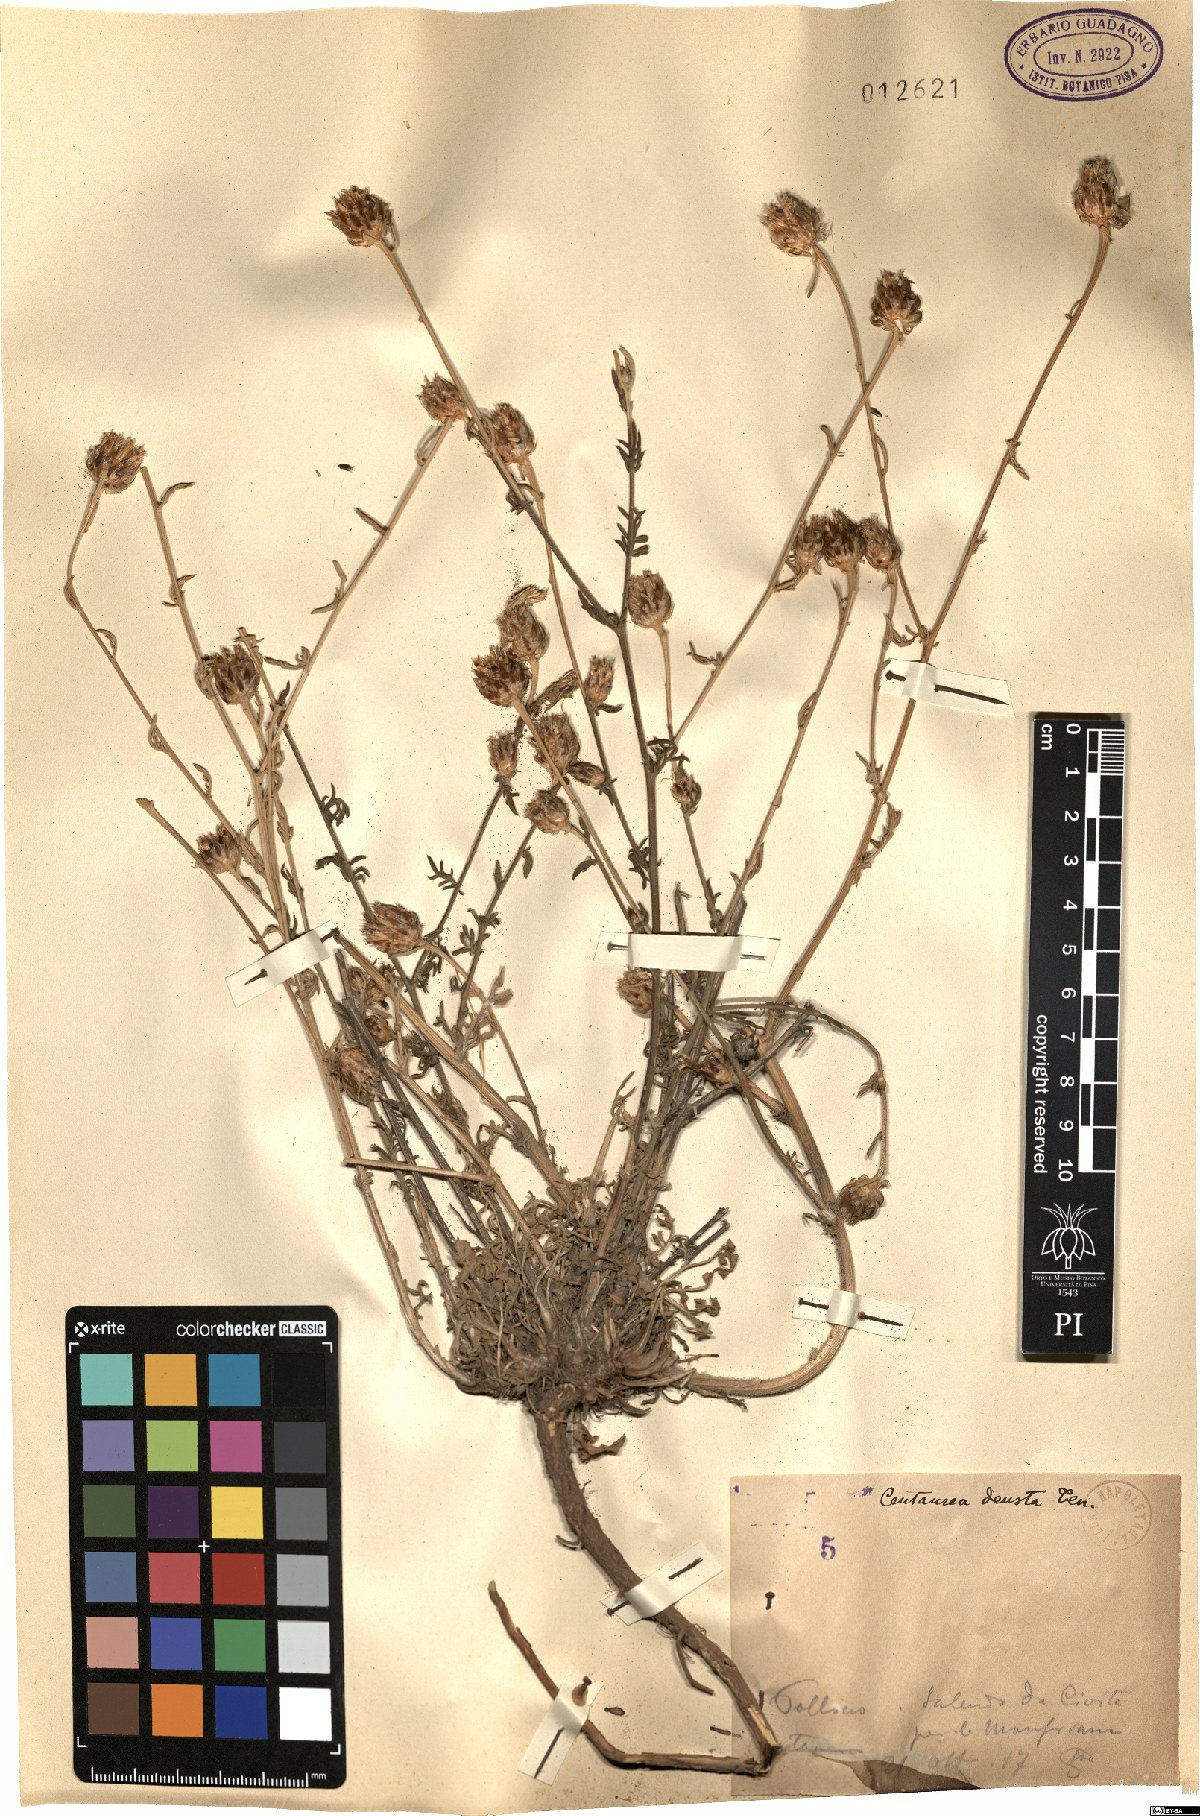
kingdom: Plantae
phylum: Tracheophyta
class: Magnoliopsida
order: Asterales
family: Asteraceae
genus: Centaurea
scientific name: Centaurea deusta
